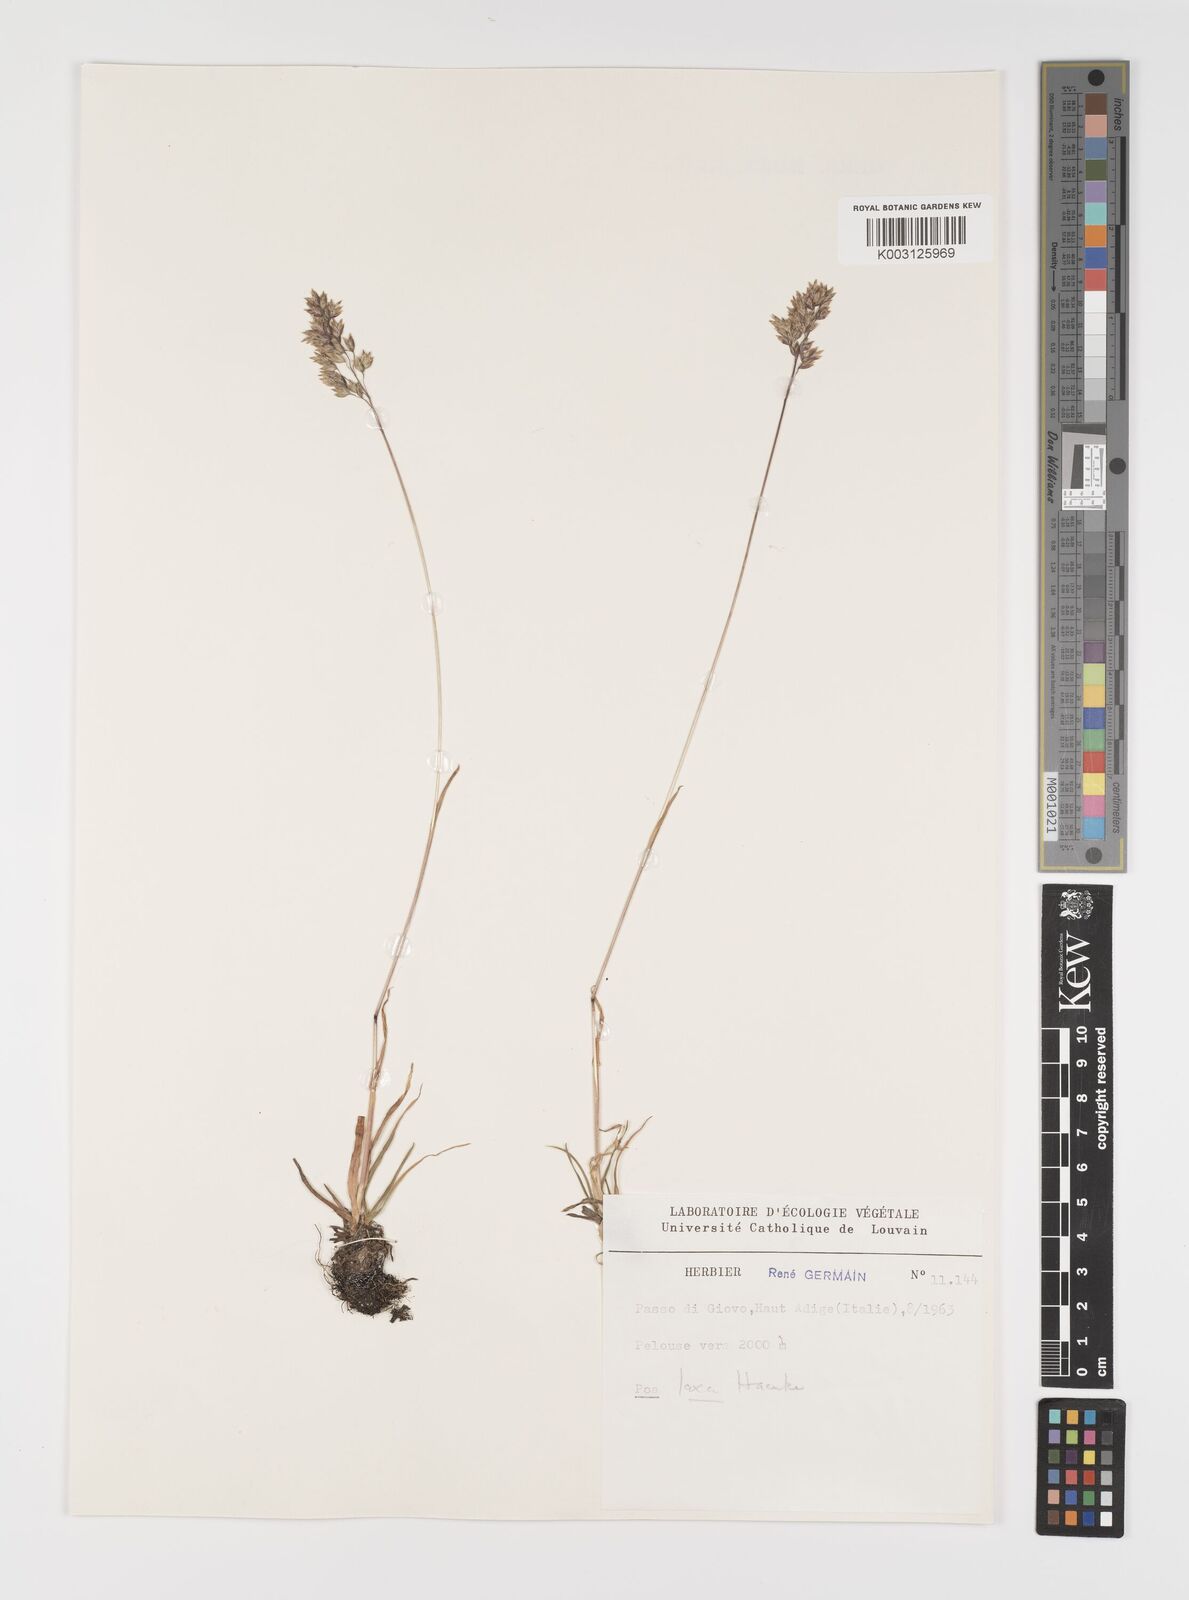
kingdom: Plantae
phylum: Tracheophyta
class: Liliopsida
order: Poales
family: Poaceae
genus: Poa
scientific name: Poa laxa
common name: Lax bluegrass
